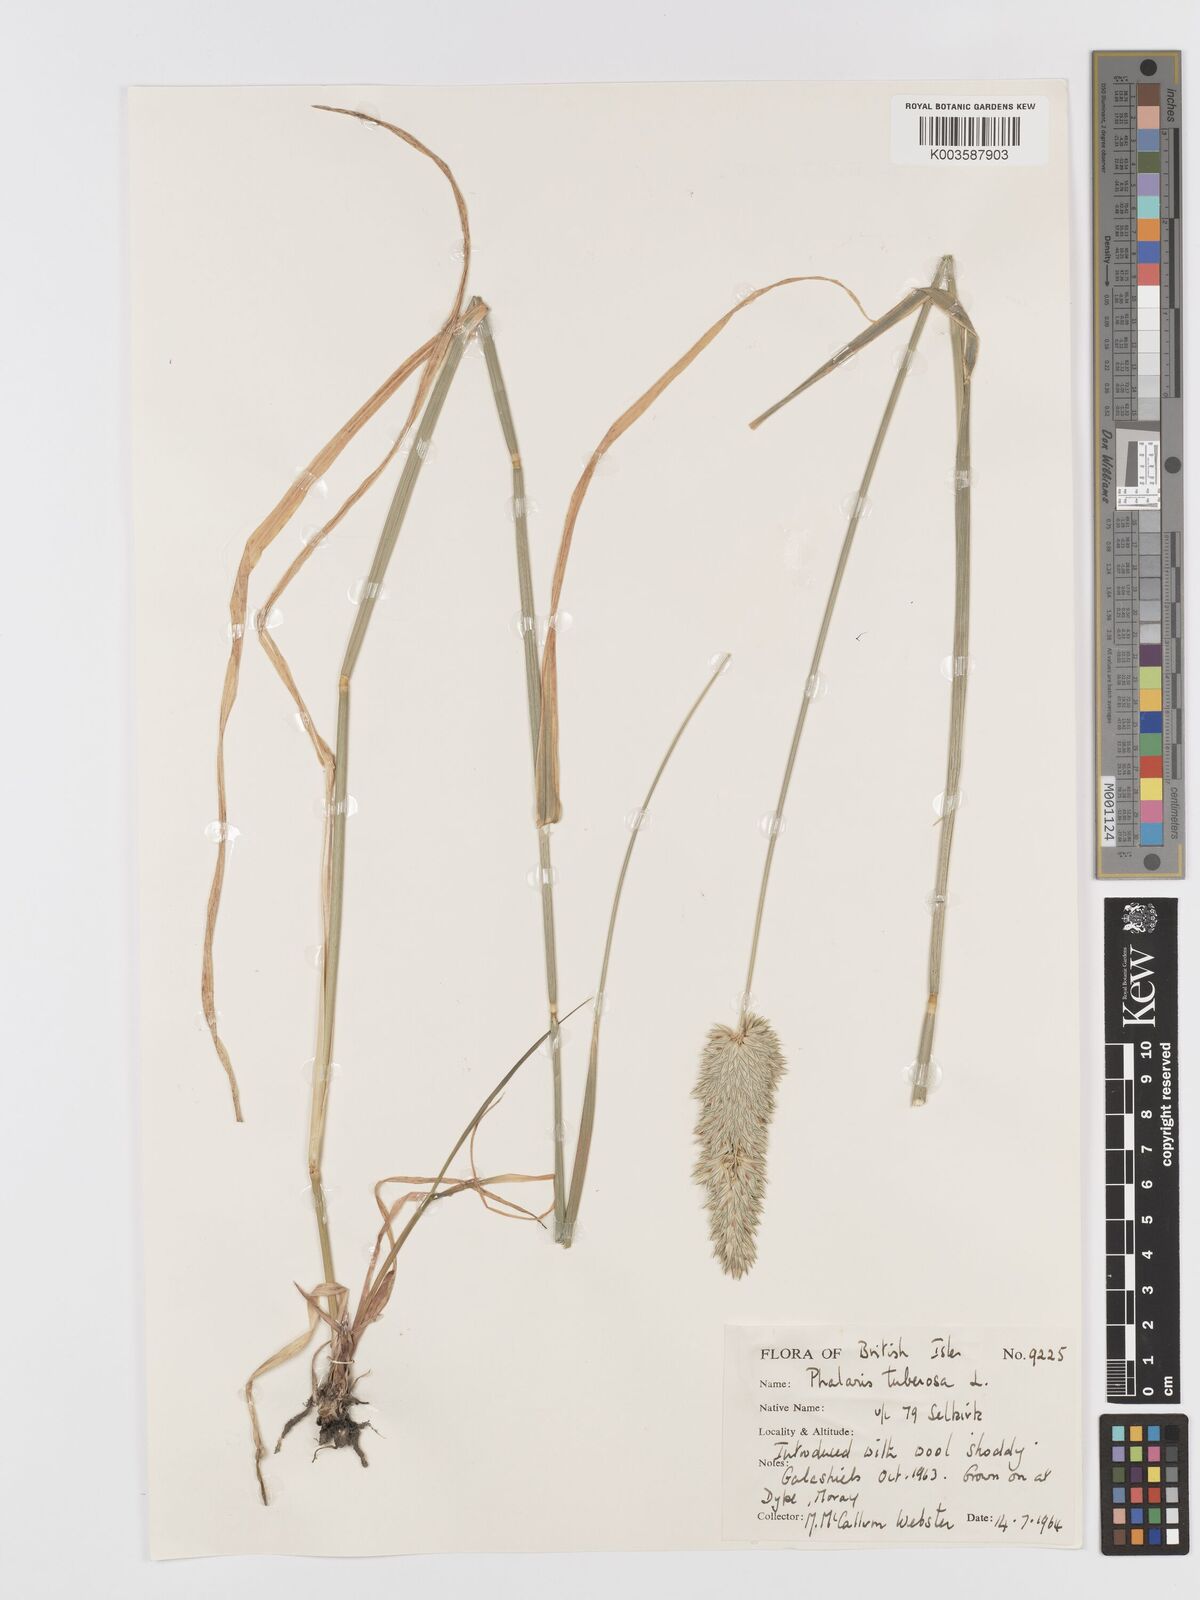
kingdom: Plantae
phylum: Tracheophyta
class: Liliopsida
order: Poales
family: Poaceae
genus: Phalaris
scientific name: Phalaris
